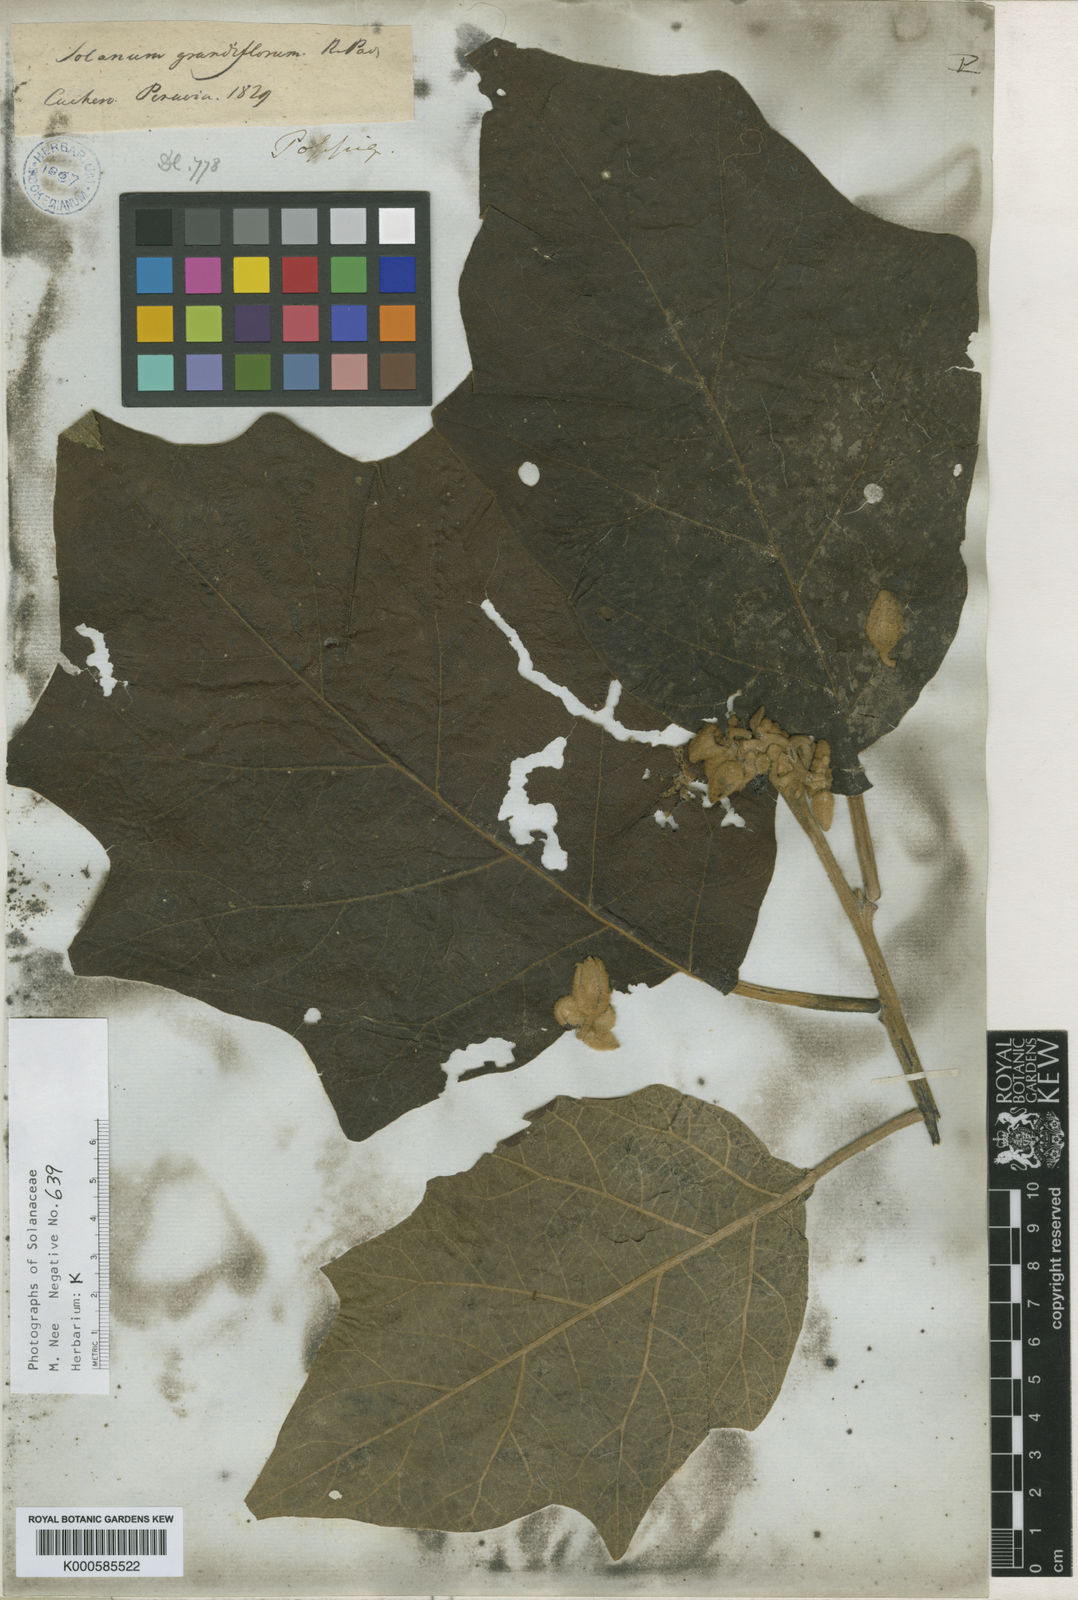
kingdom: Plantae
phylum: Tracheophyta
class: Magnoliopsida
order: Solanales
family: Solanaceae
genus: Solanum
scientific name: Solanum grandiflorum
